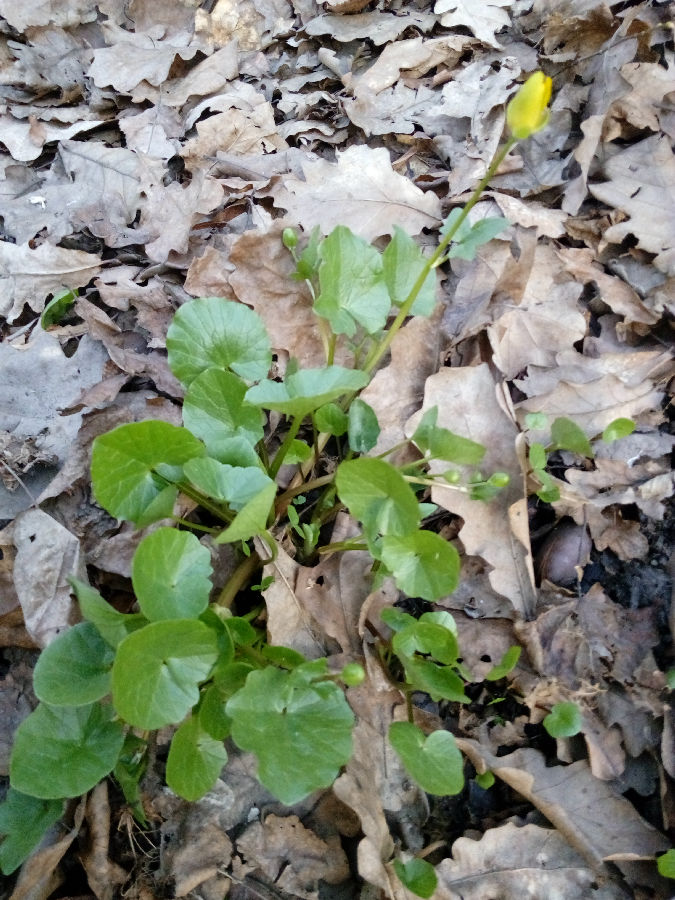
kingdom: Plantae
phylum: Tracheophyta
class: Magnoliopsida
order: Ranunculales
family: Ranunculaceae
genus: Ficaria
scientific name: Ficaria verna
